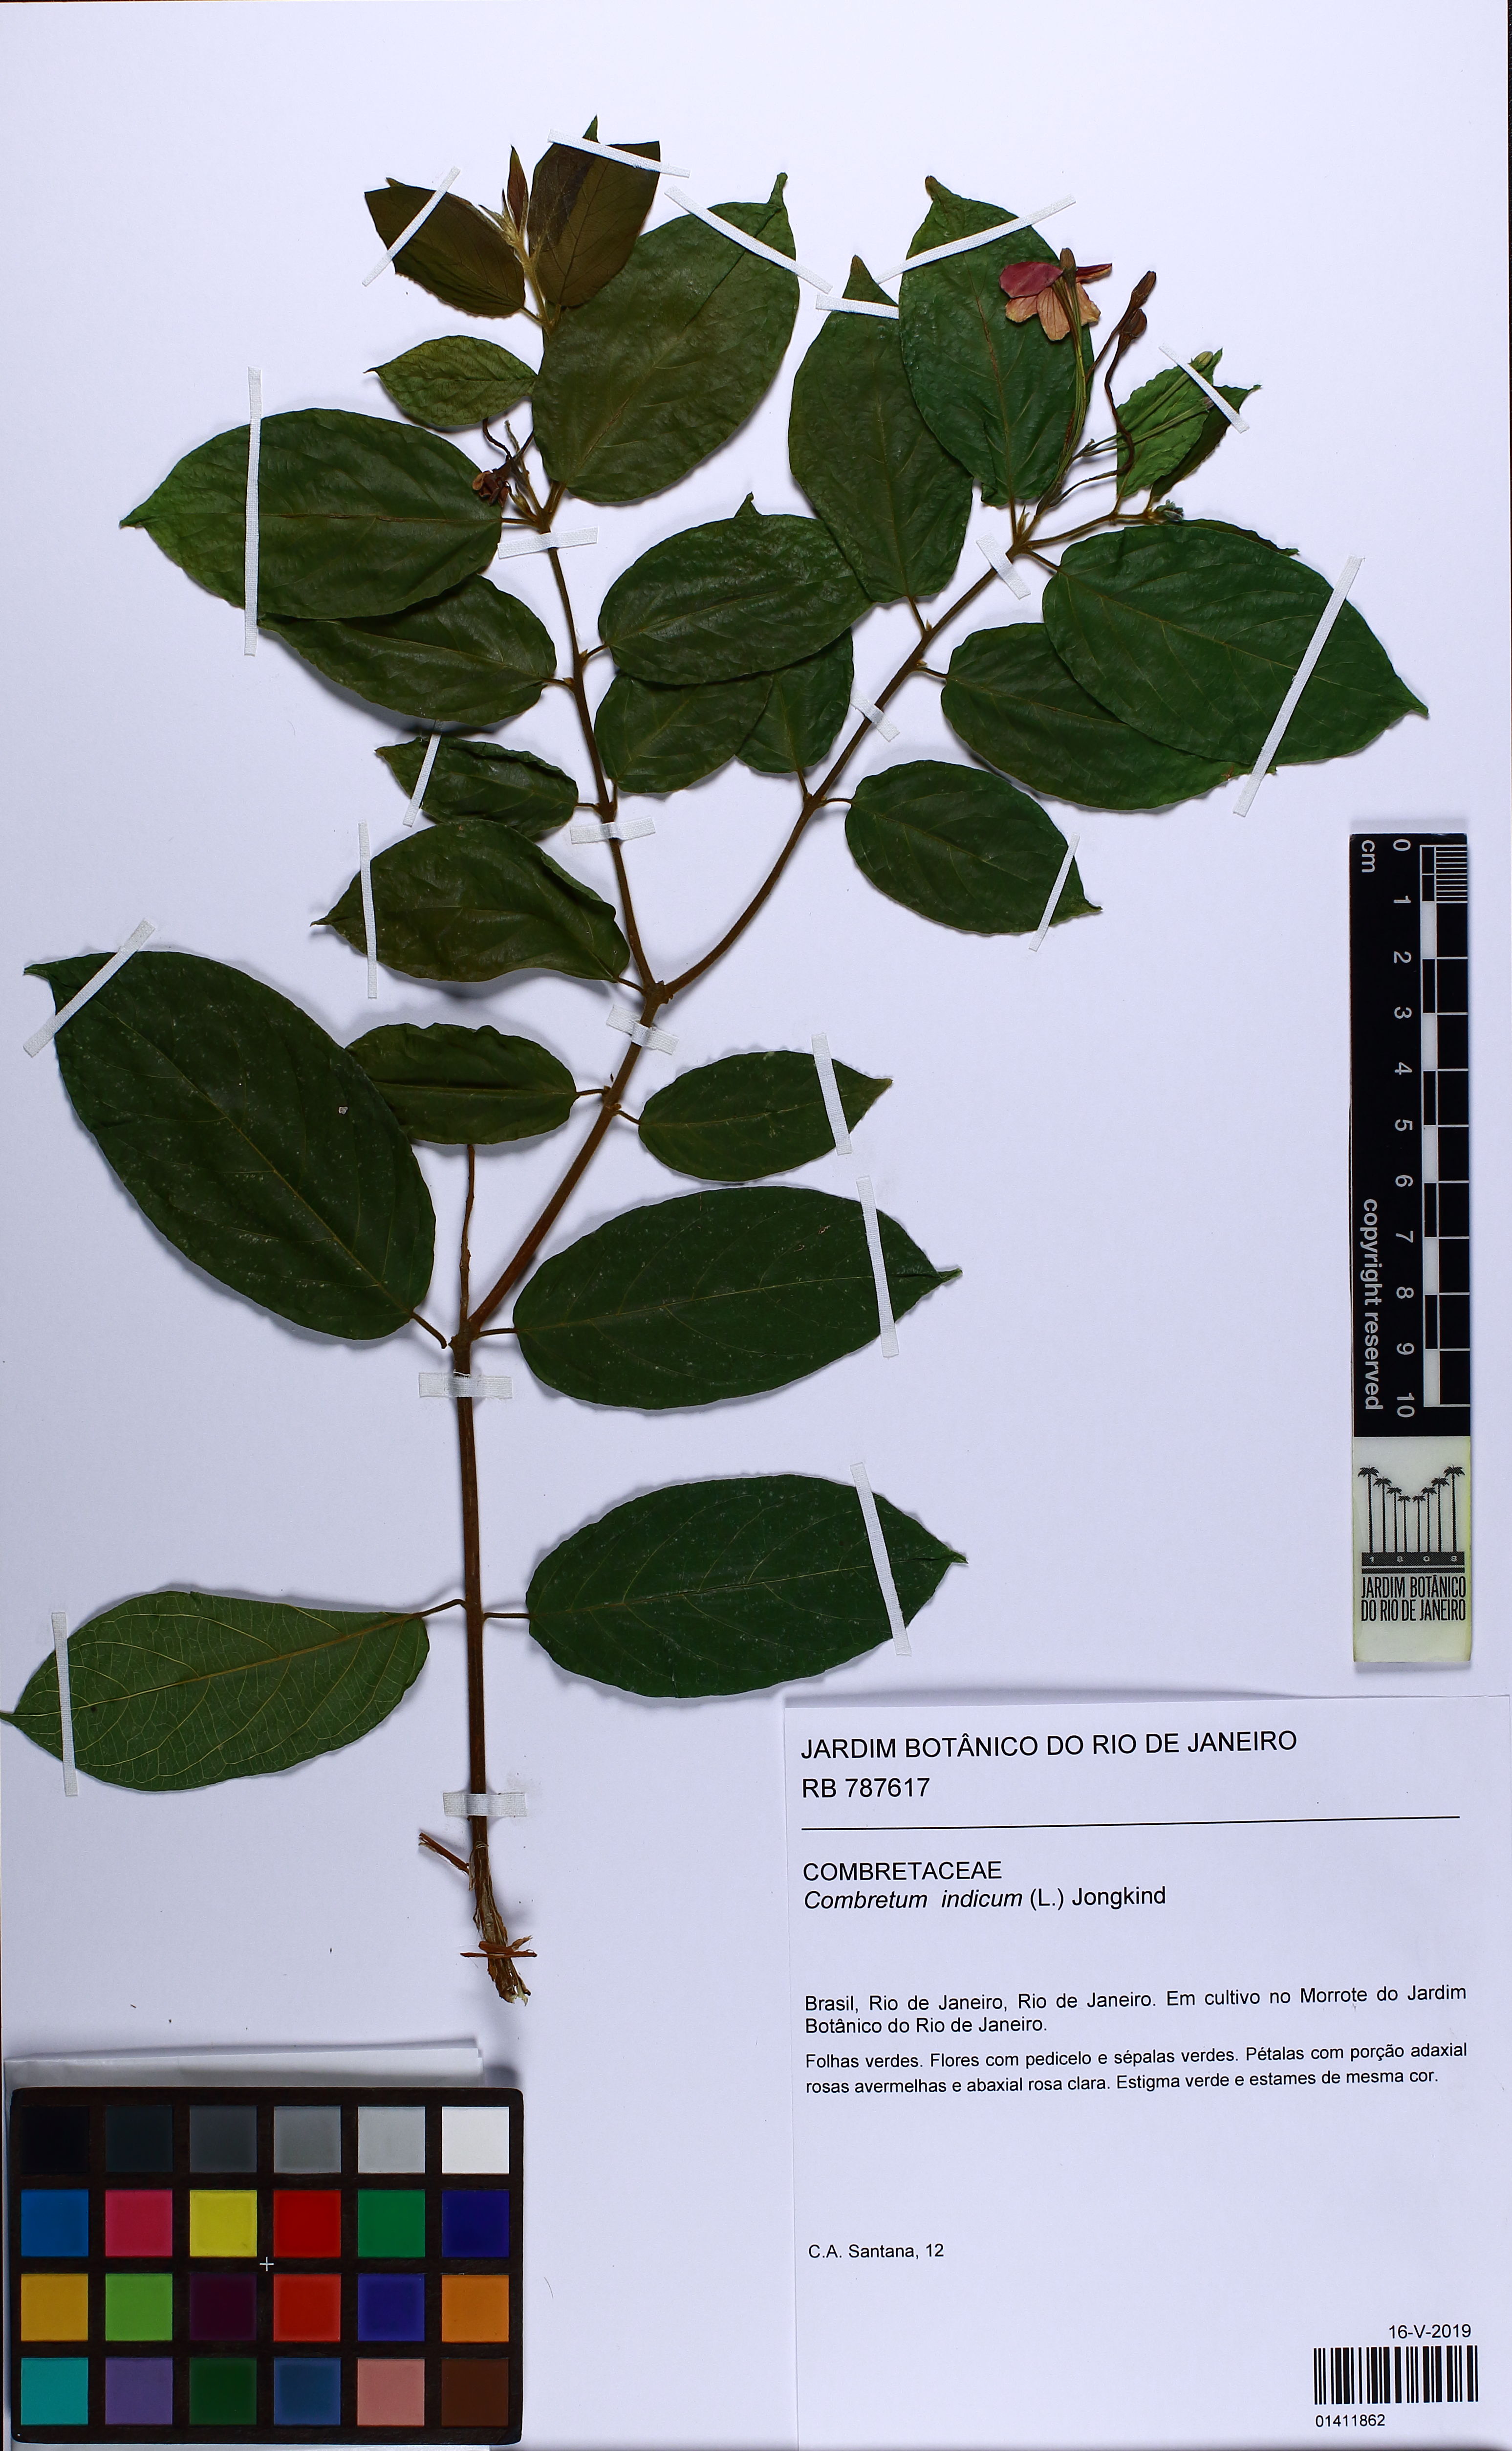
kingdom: Plantae
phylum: Tracheophyta
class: Magnoliopsida
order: Myrtales
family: Combretaceae
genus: Combretum
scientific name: Combretum indicum
